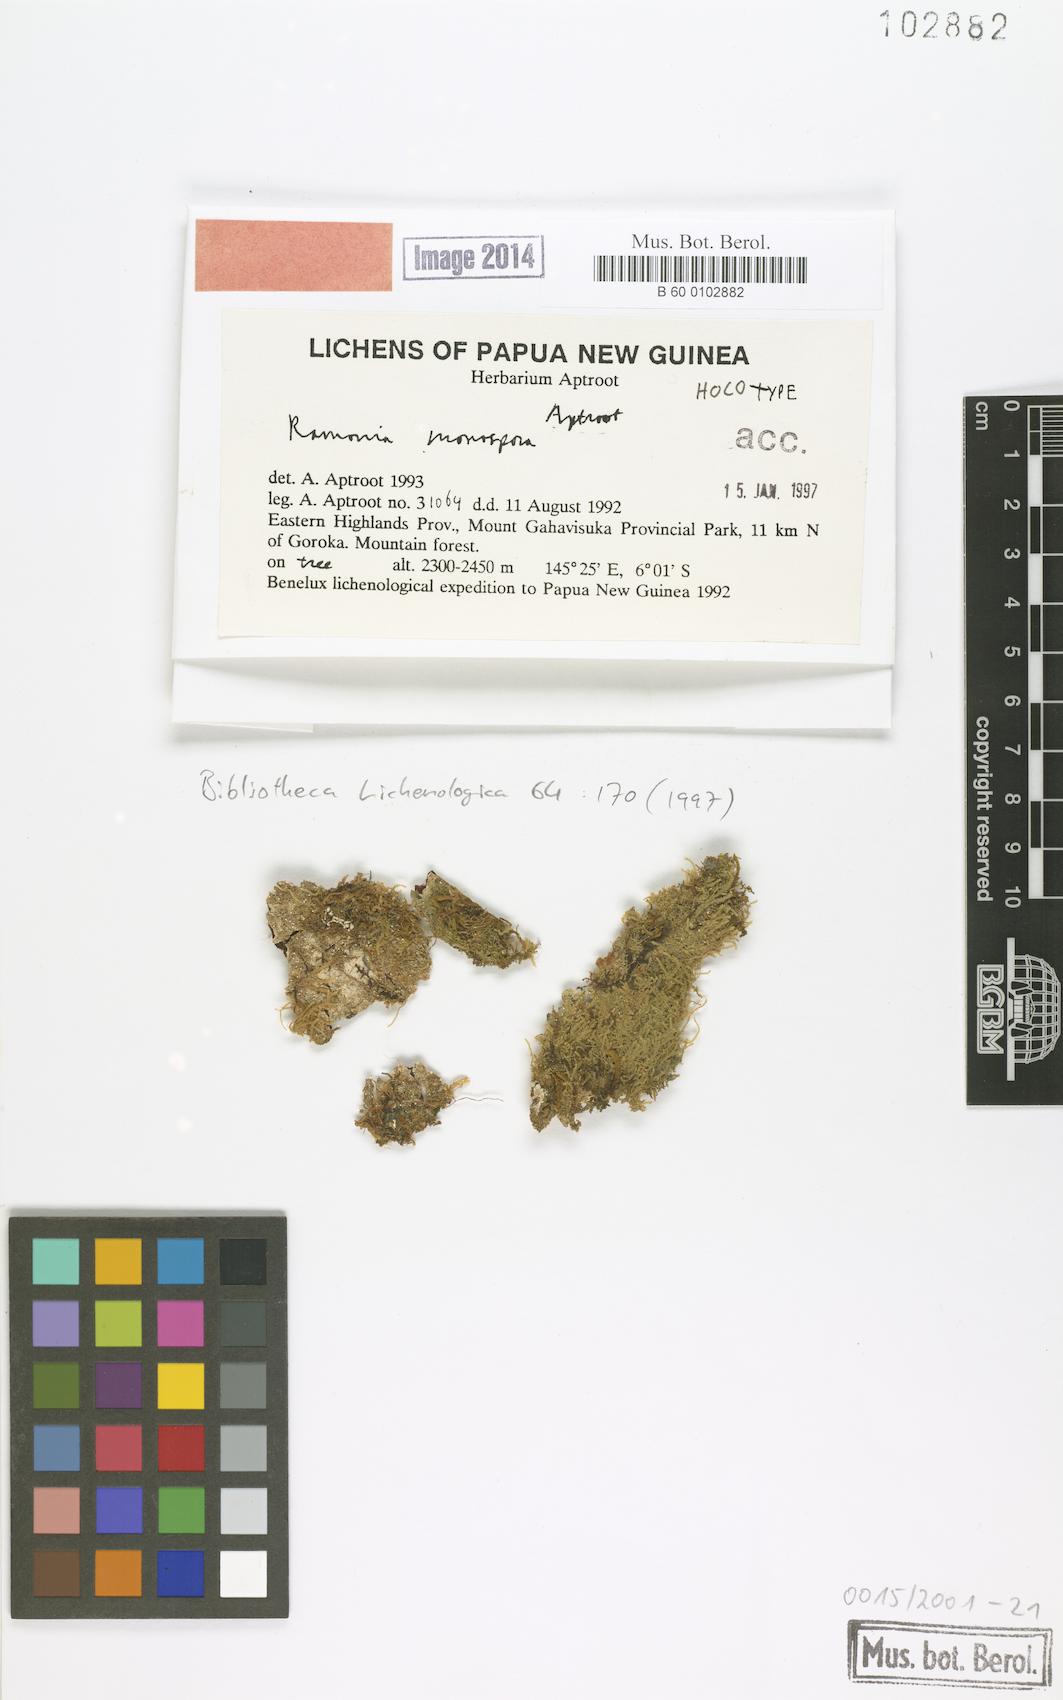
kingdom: Fungi
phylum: Ascomycota
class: Lecanoromycetes
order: Ostropales
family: Graphidaceae
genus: Topeliopsis
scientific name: Topeliopsis monospora
